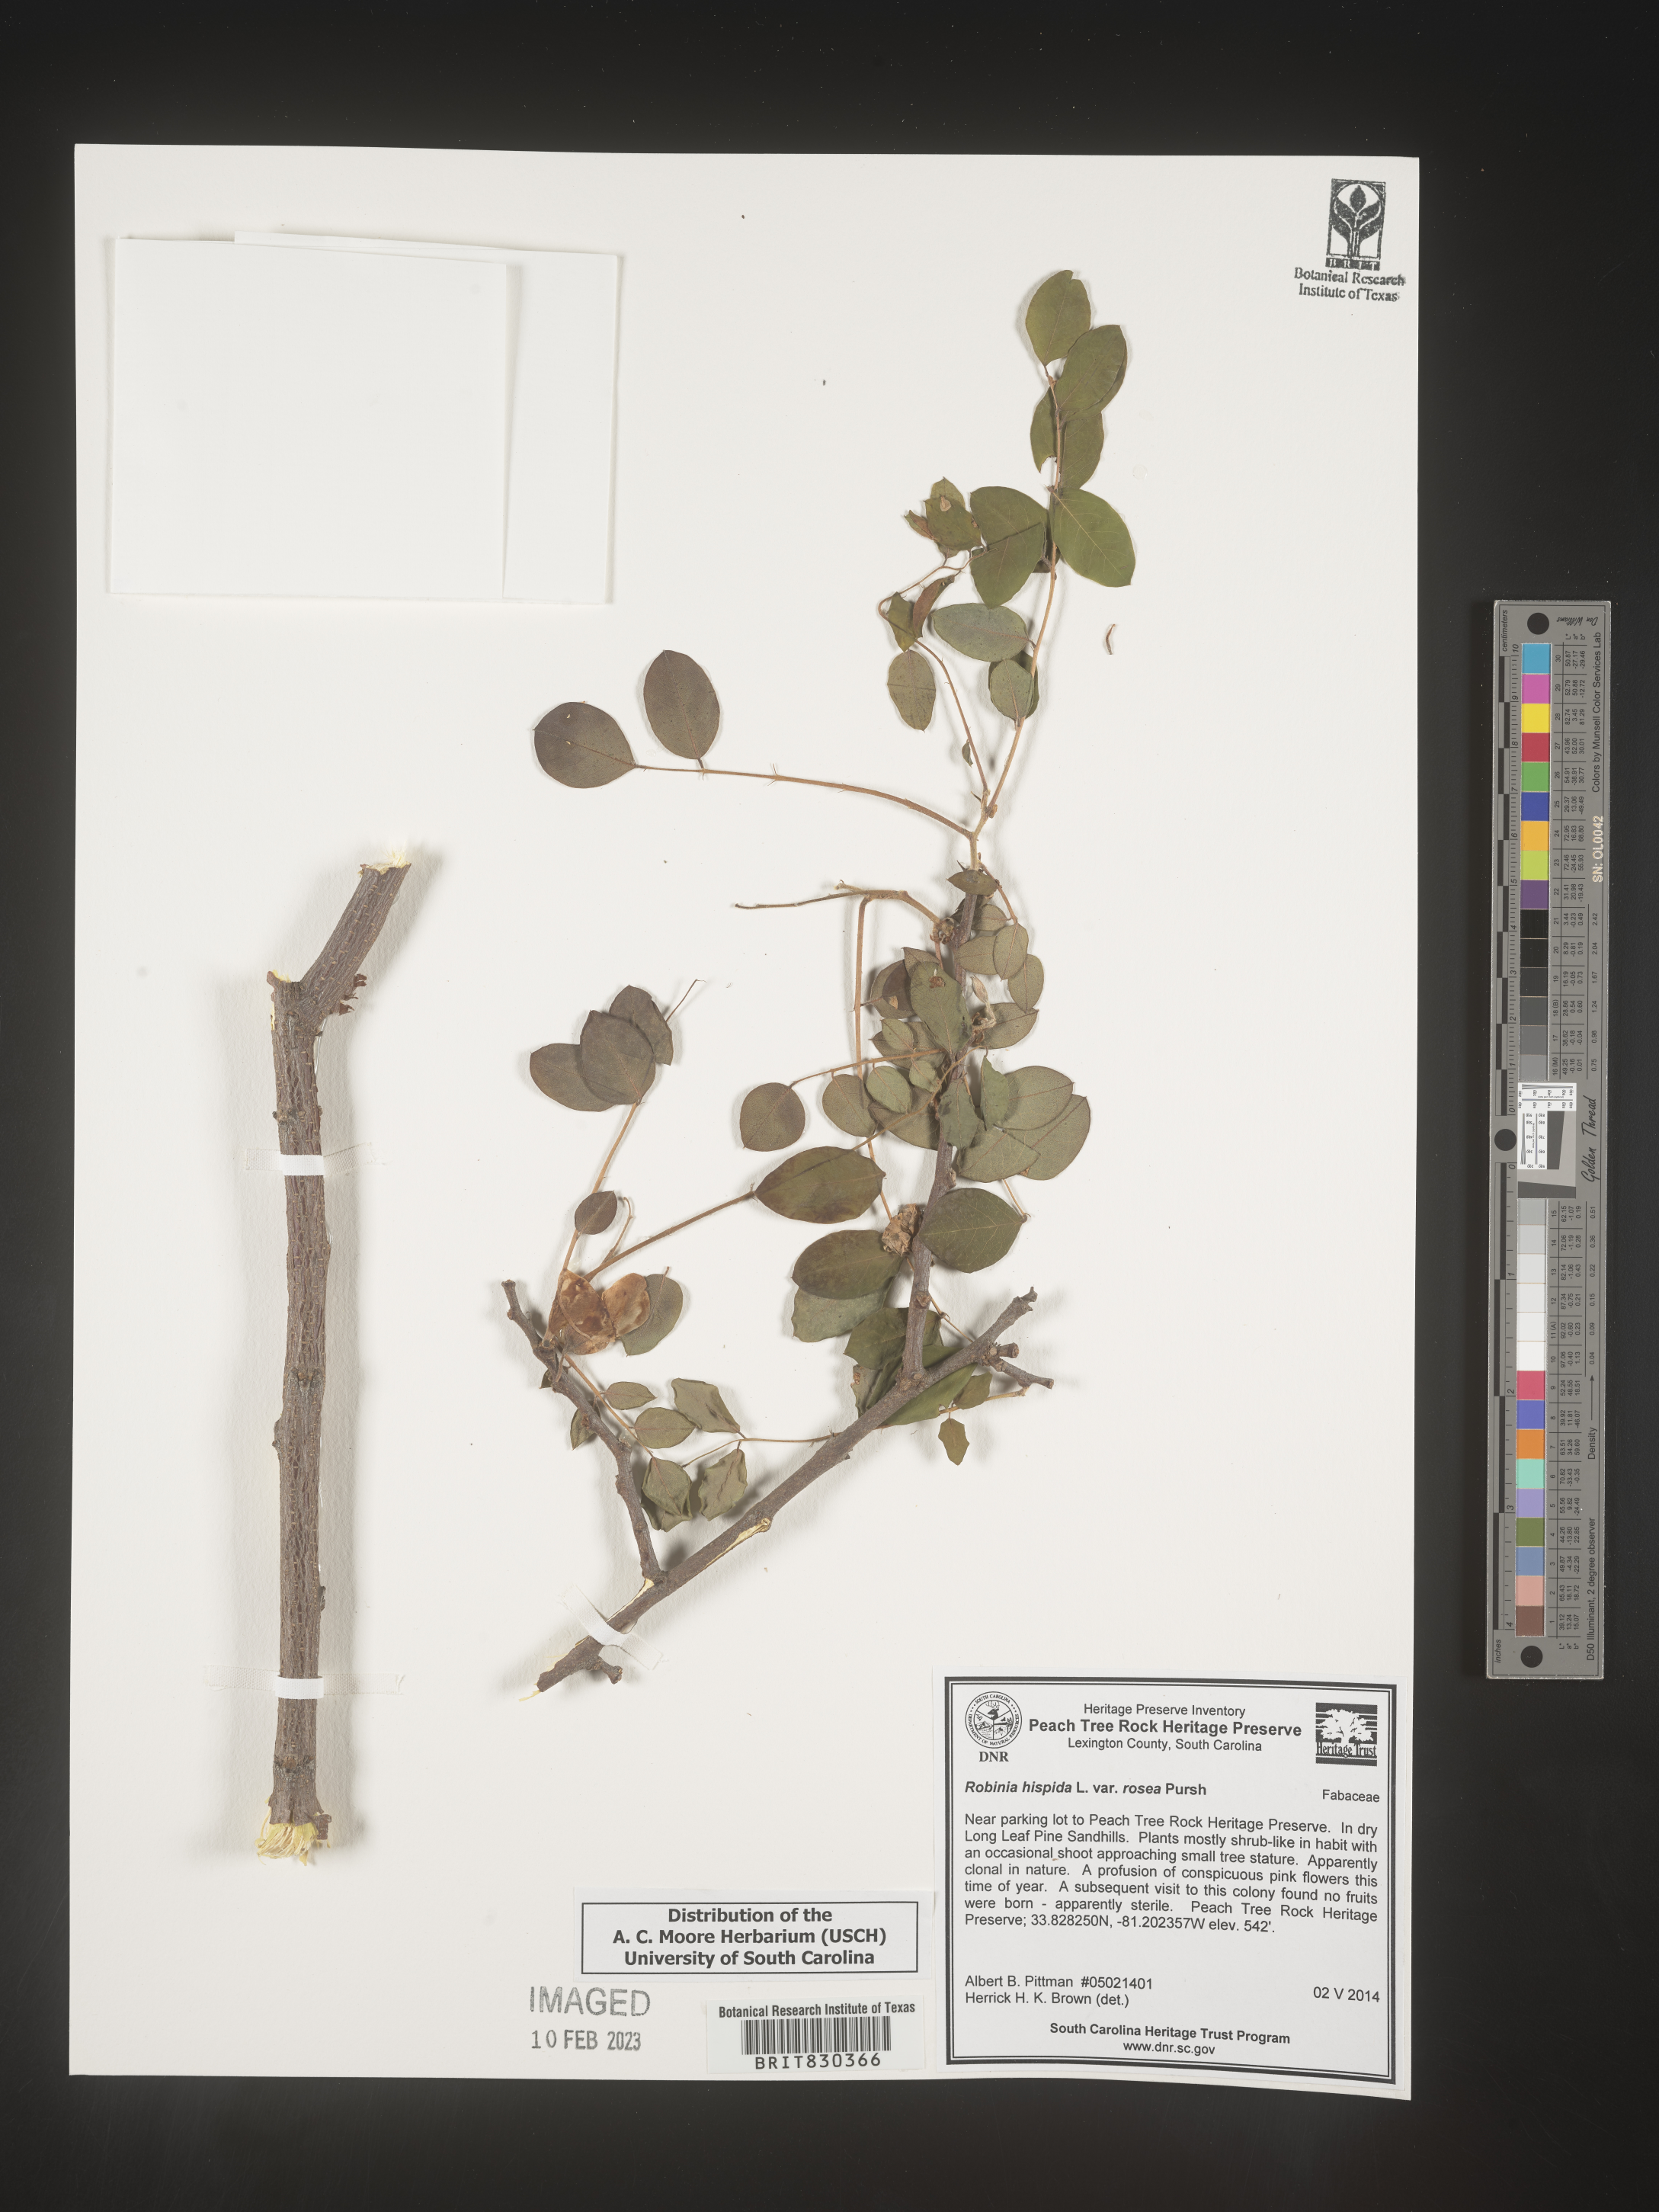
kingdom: Plantae
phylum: Tracheophyta
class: Magnoliopsida
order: Fabales
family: Fabaceae
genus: Robinia
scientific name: Robinia hispida
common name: Bristly locust
